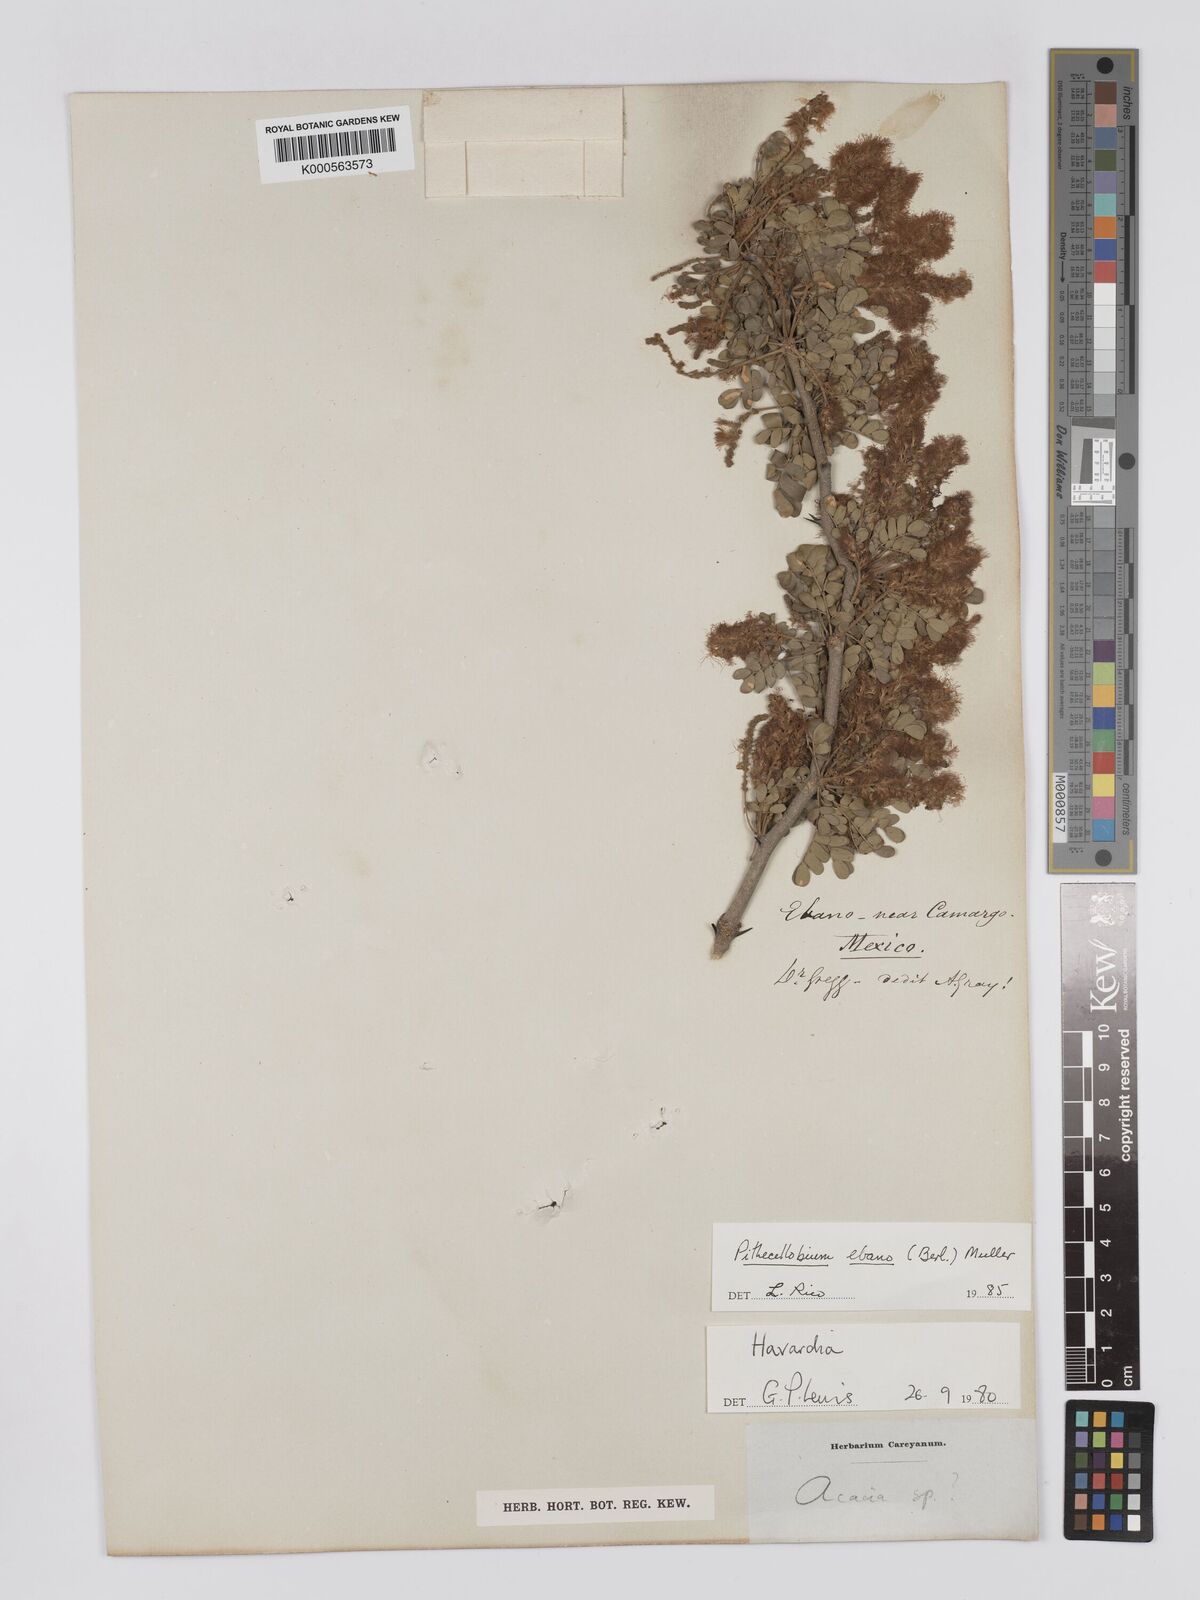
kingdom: Plantae
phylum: Tracheophyta
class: Magnoliopsida
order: Fabales
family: Fabaceae
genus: Ebenopsis
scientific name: Ebenopsis ebano
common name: Ebony blackbead
